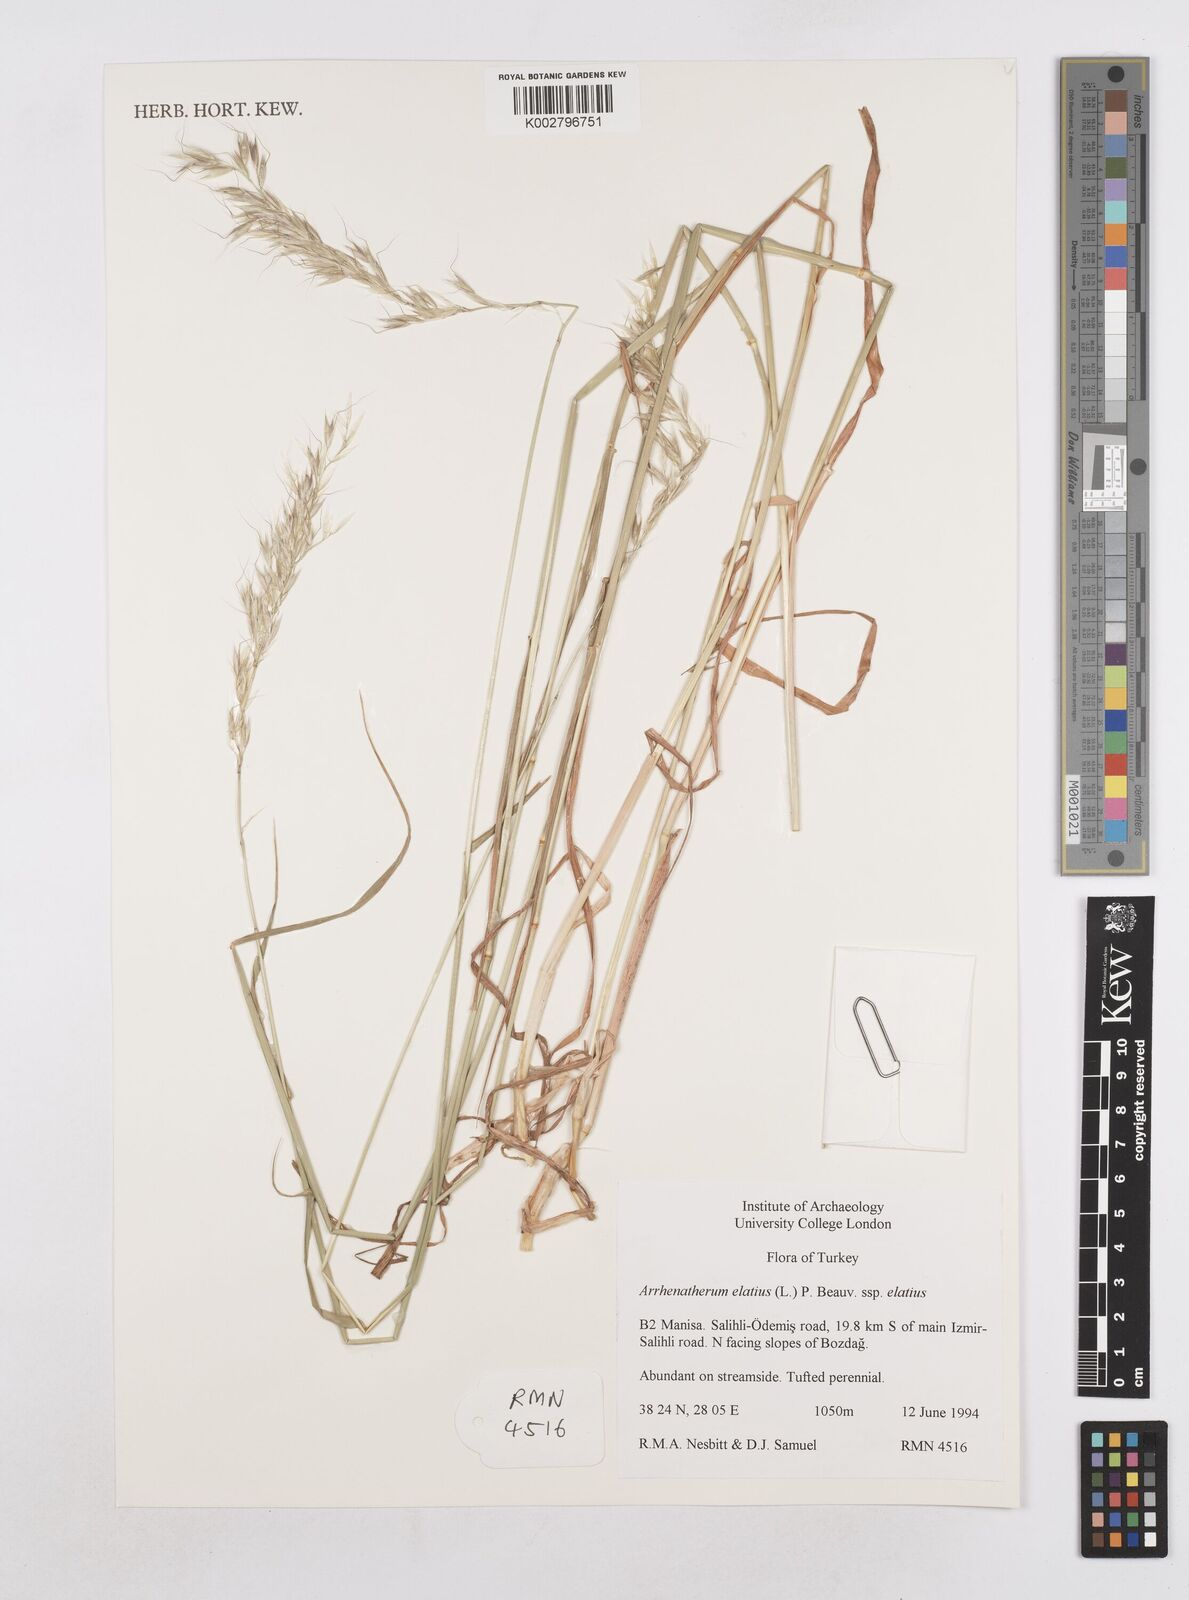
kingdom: Plantae
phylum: Tracheophyta
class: Liliopsida
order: Poales
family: Poaceae
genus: Arrhenatherum
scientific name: Arrhenatherum elatius
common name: Tall oatgrass
